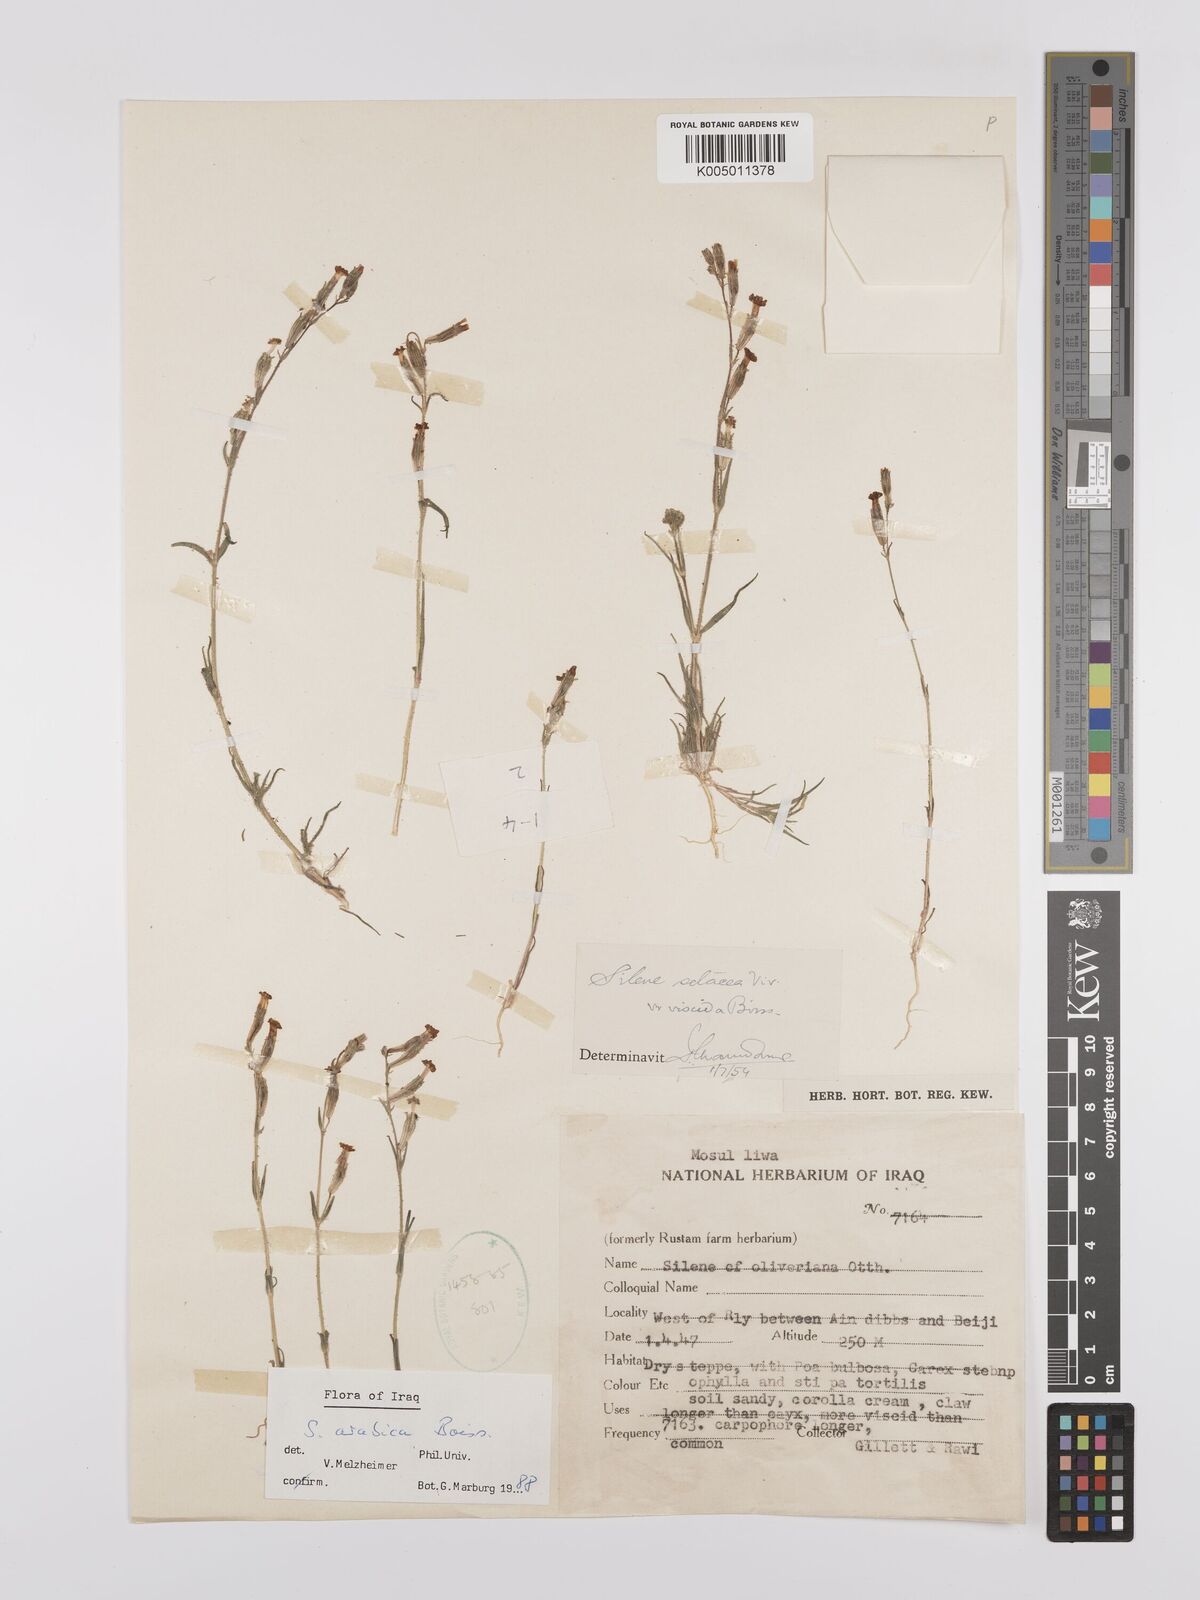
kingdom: Plantae
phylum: Tracheophyta
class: Magnoliopsida
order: Caryophyllales
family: Caryophyllaceae
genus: Silene
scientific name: Silene arabica
